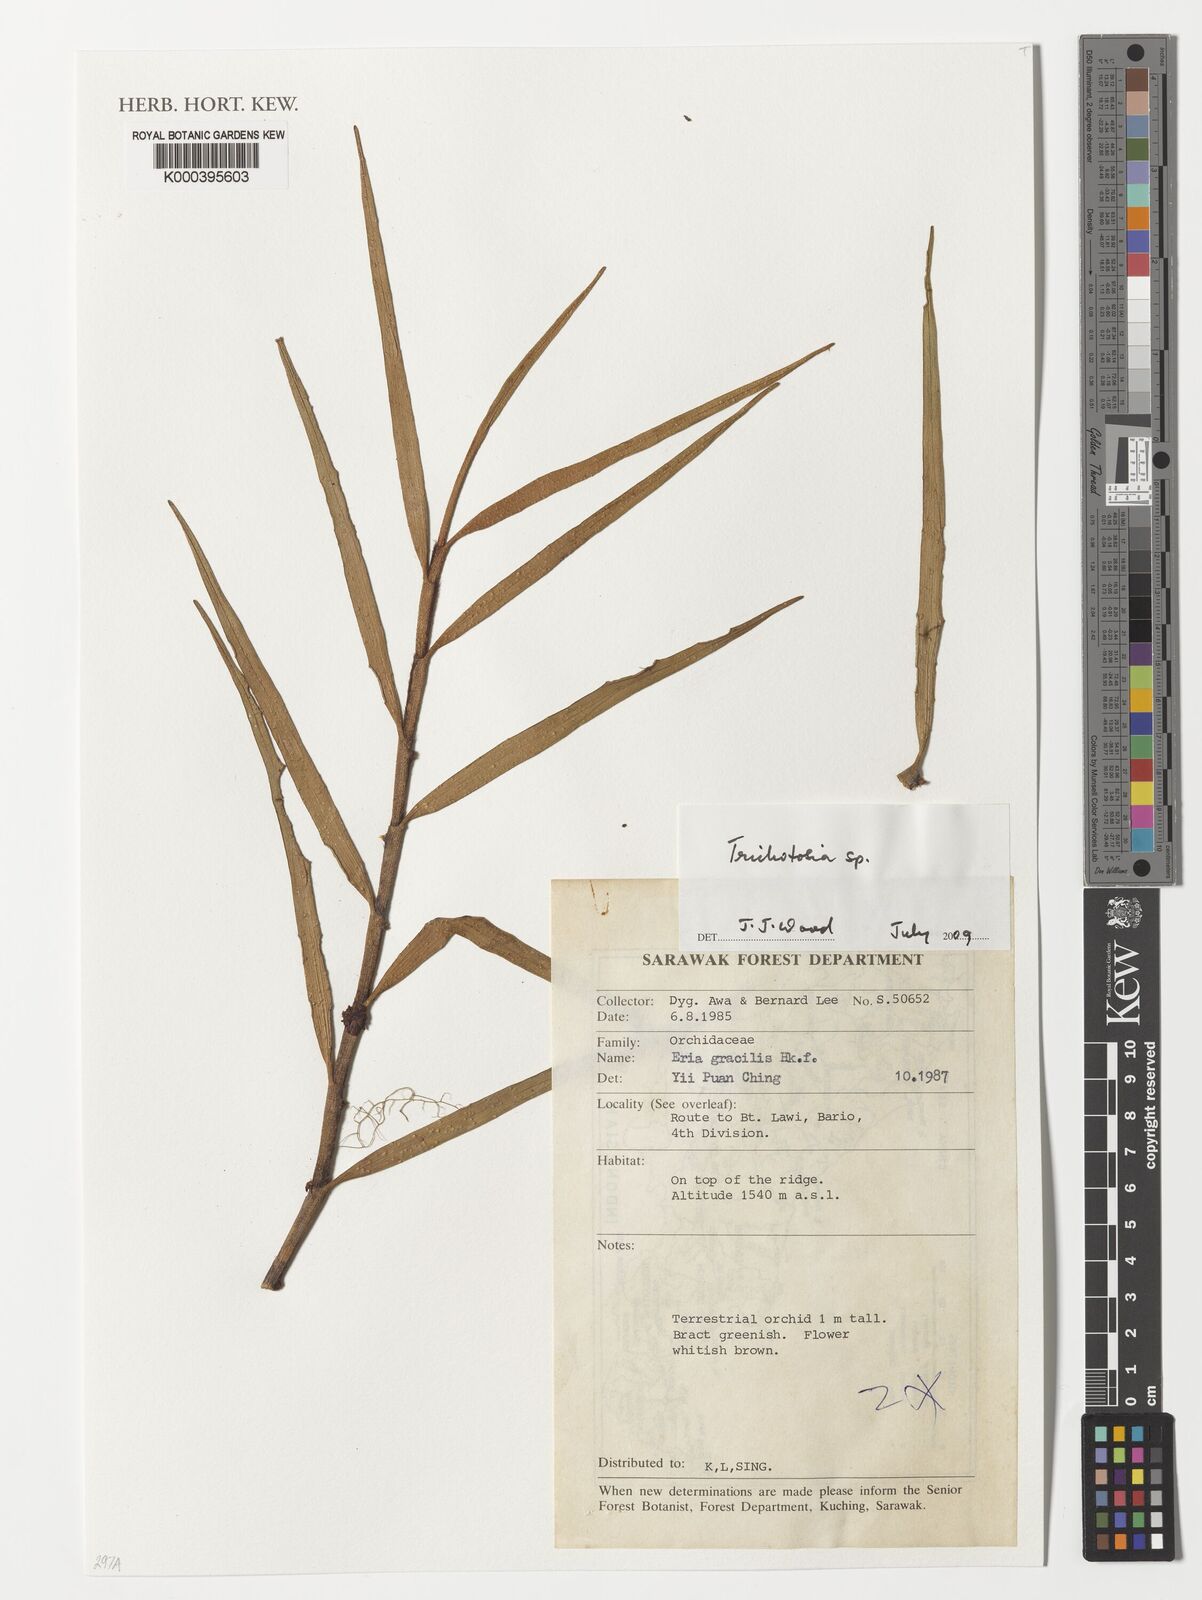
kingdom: Plantae
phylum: Tracheophyta
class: Liliopsida
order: Asparagales
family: Orchidaceae
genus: Trichotosia
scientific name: Trichotosia
